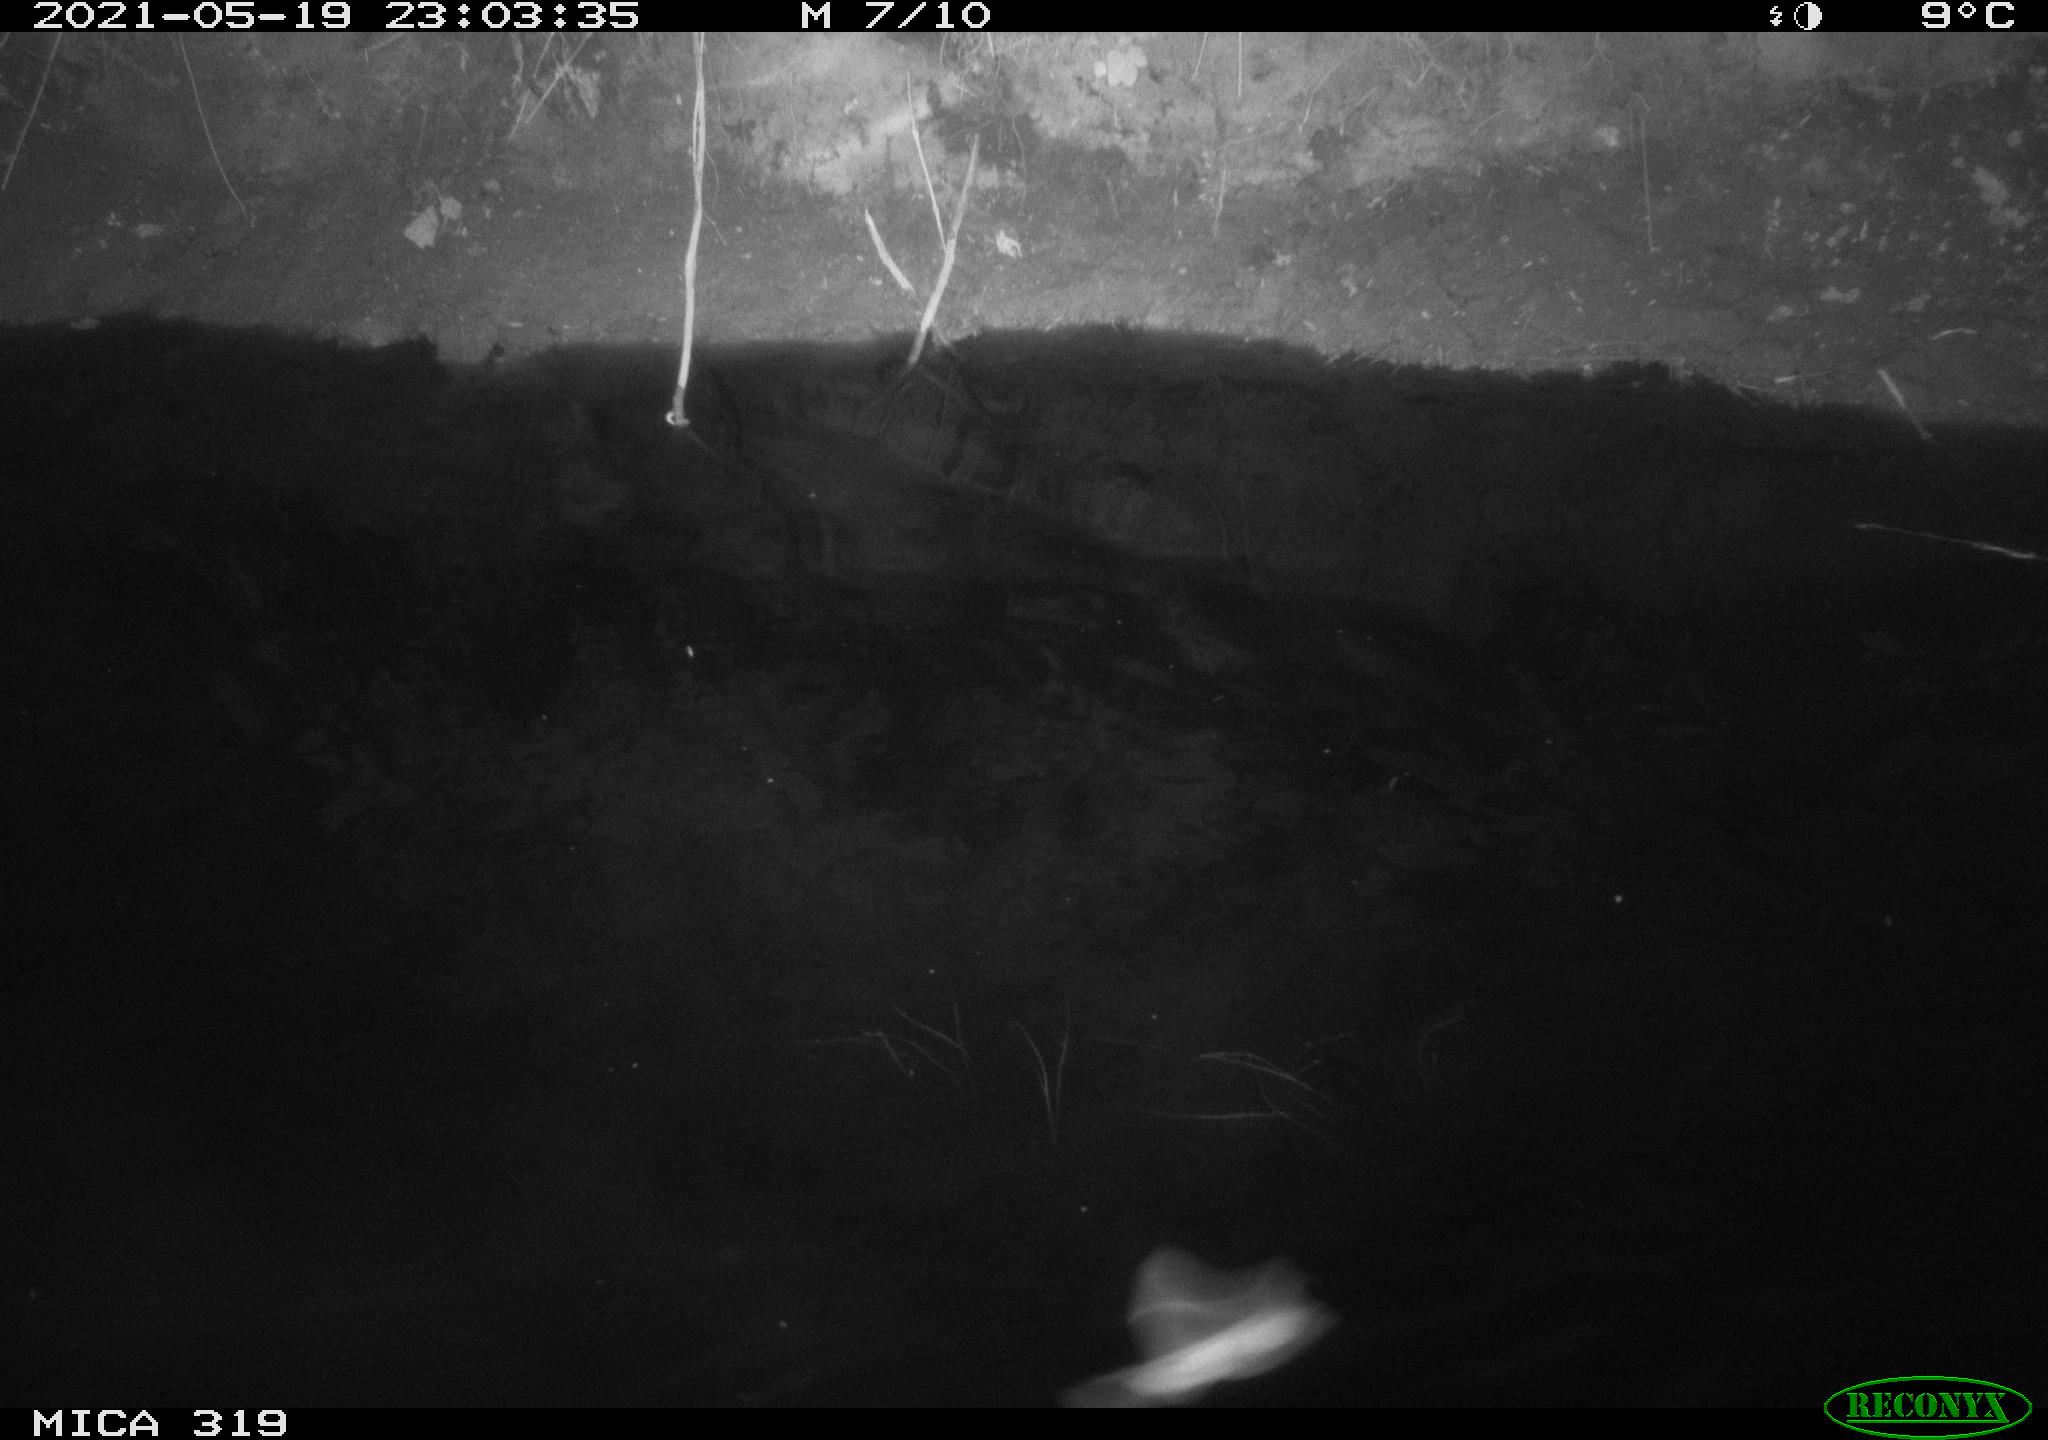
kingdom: Animalia
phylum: Chordata
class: Aves
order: Anseriformes
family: Anatidae
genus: Anas
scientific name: Anas platyrhynchos
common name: Mallard
